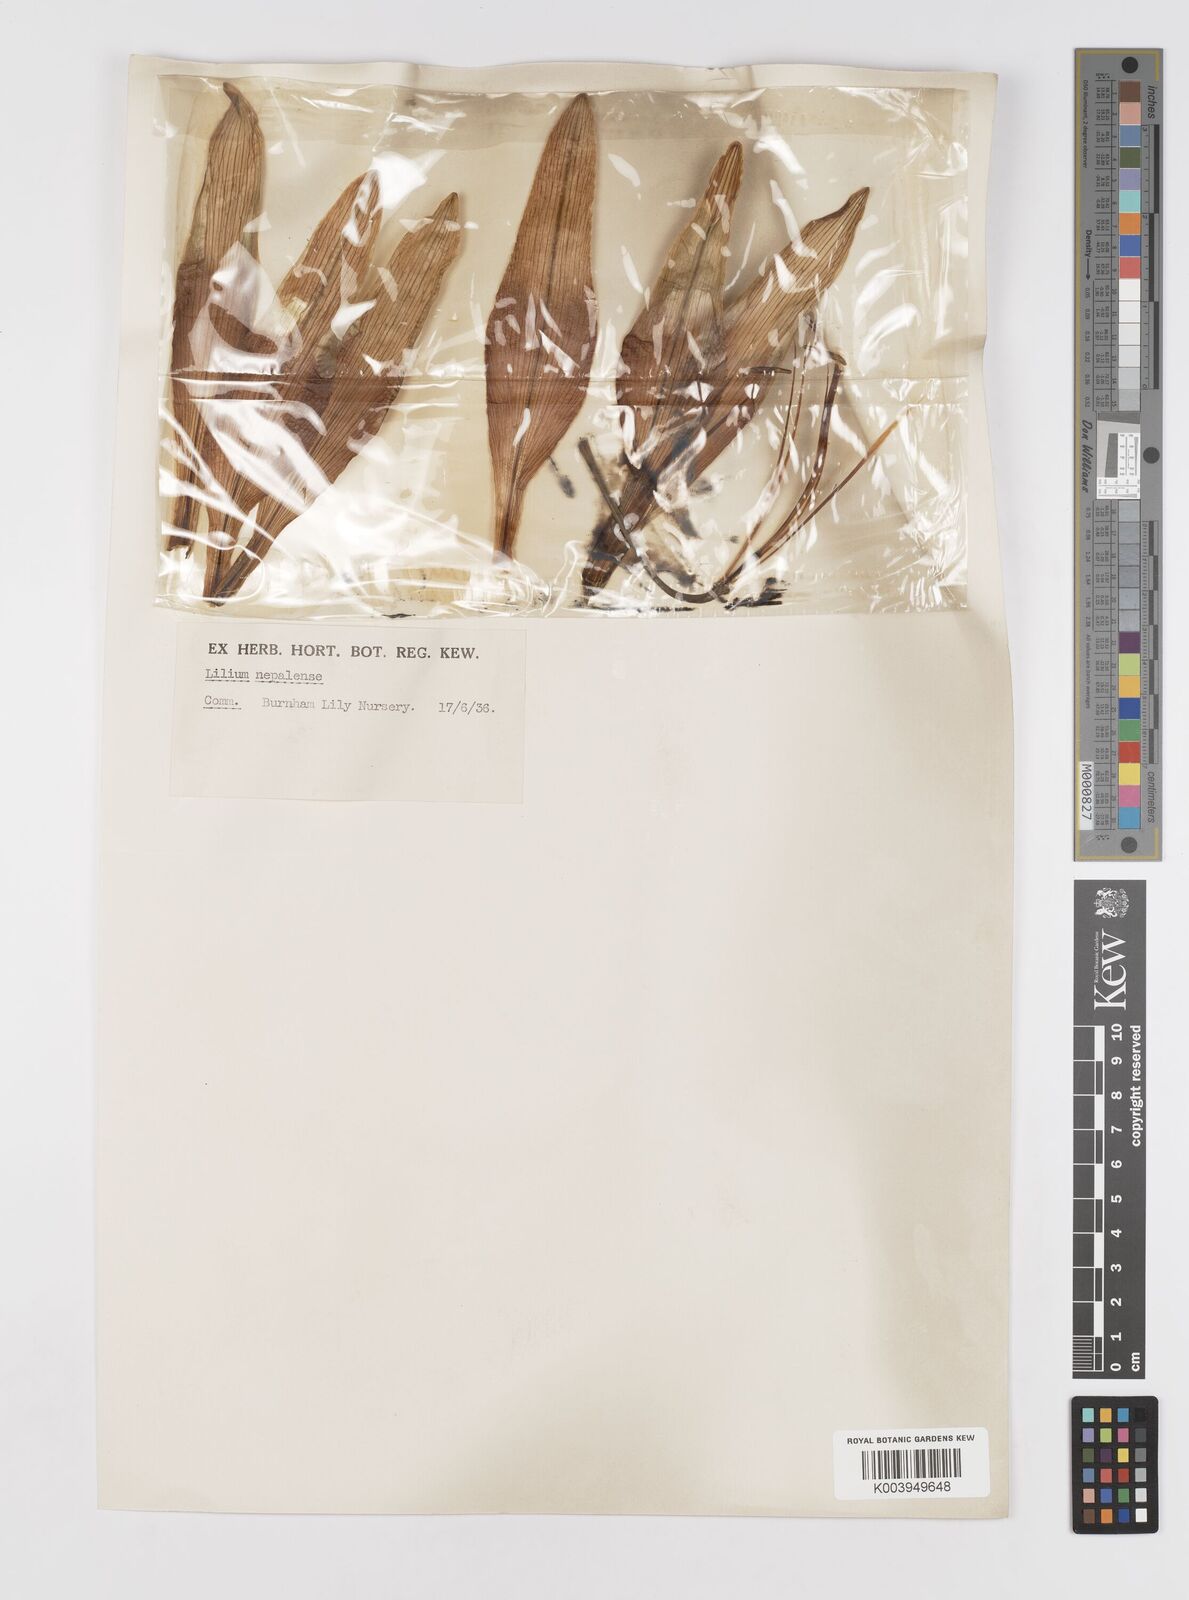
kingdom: Plantae
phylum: Tracheophyta
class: Liliopsida
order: Liliales
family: Liliaceae
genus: Lilium
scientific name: Lilium nepalense
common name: Nepal lily
